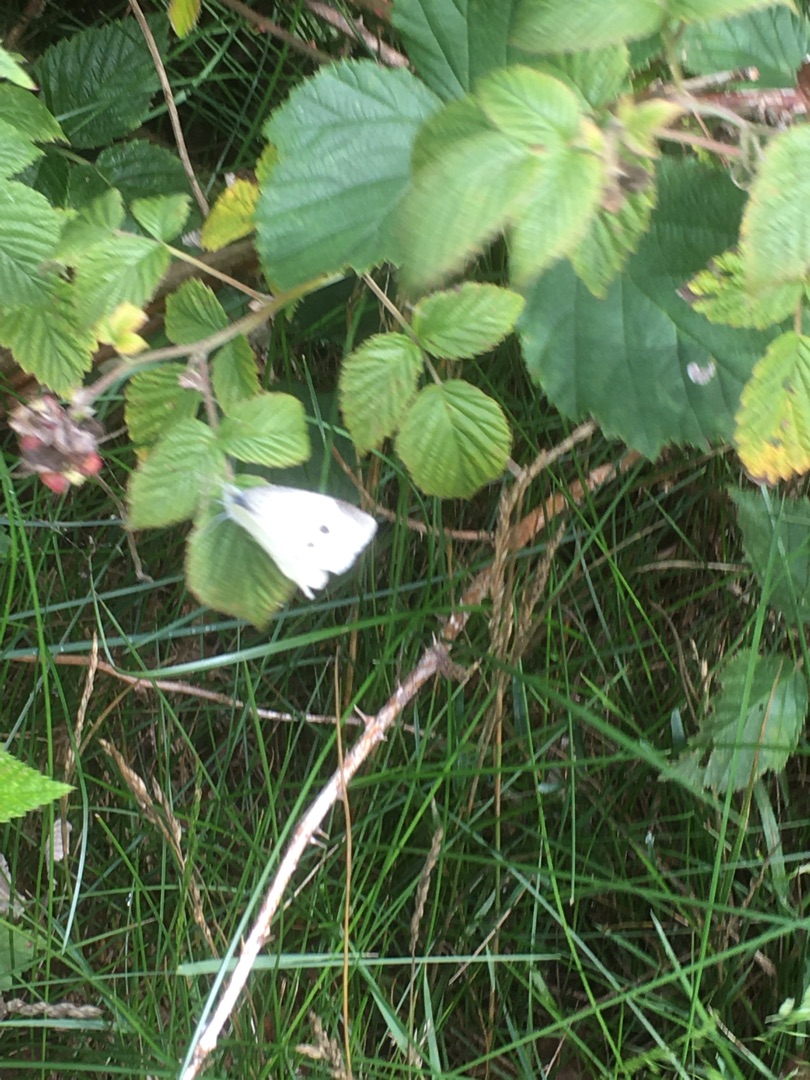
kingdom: Animalia
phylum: Arthropoda
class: Insecta
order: Lepidoptera
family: Pieridae
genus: Pieris
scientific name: Pieris rapae
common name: Lille kålsommerfugl
